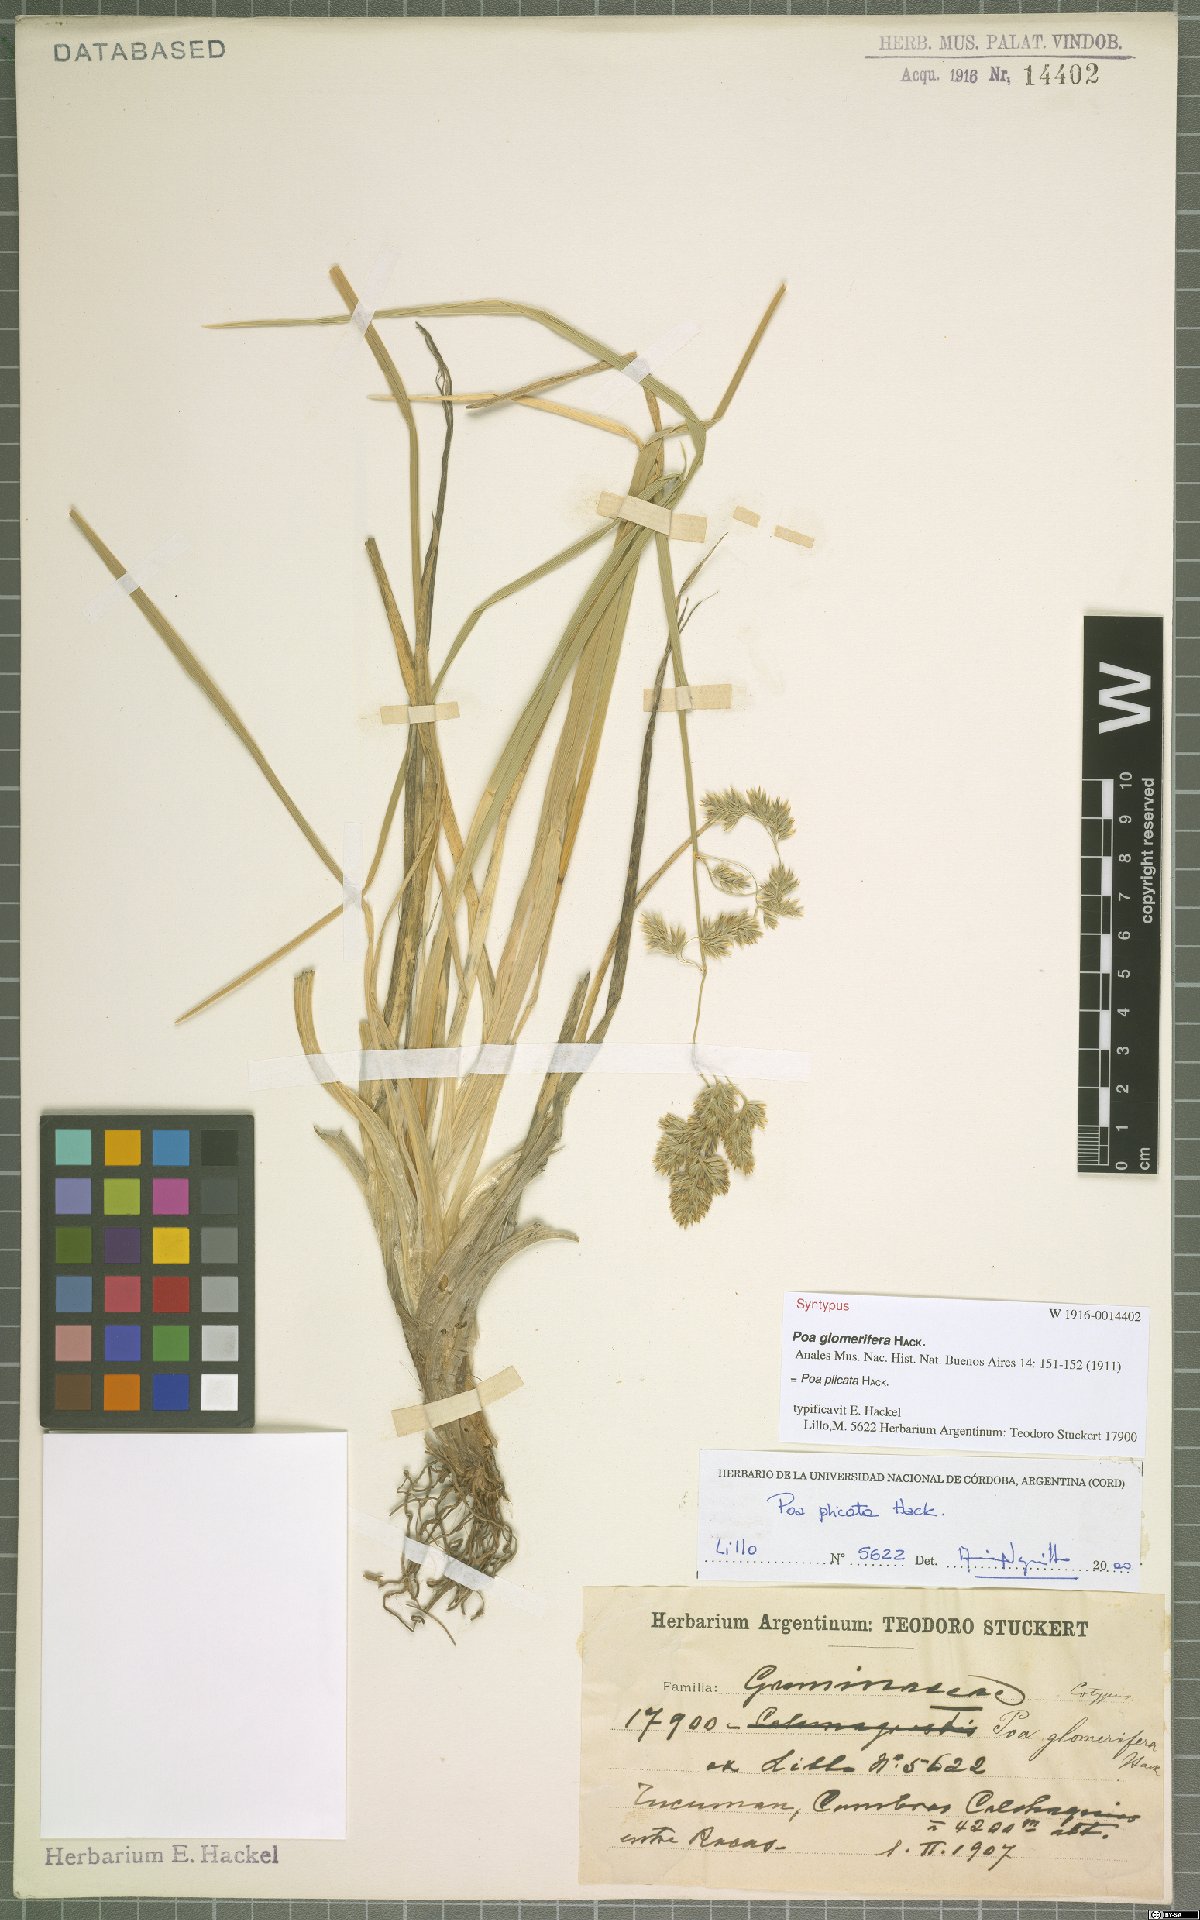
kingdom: Plantae
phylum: Tracheophyta
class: Liliopsida
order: Poales
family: Poaceae
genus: Poa
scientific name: Poa plicata
